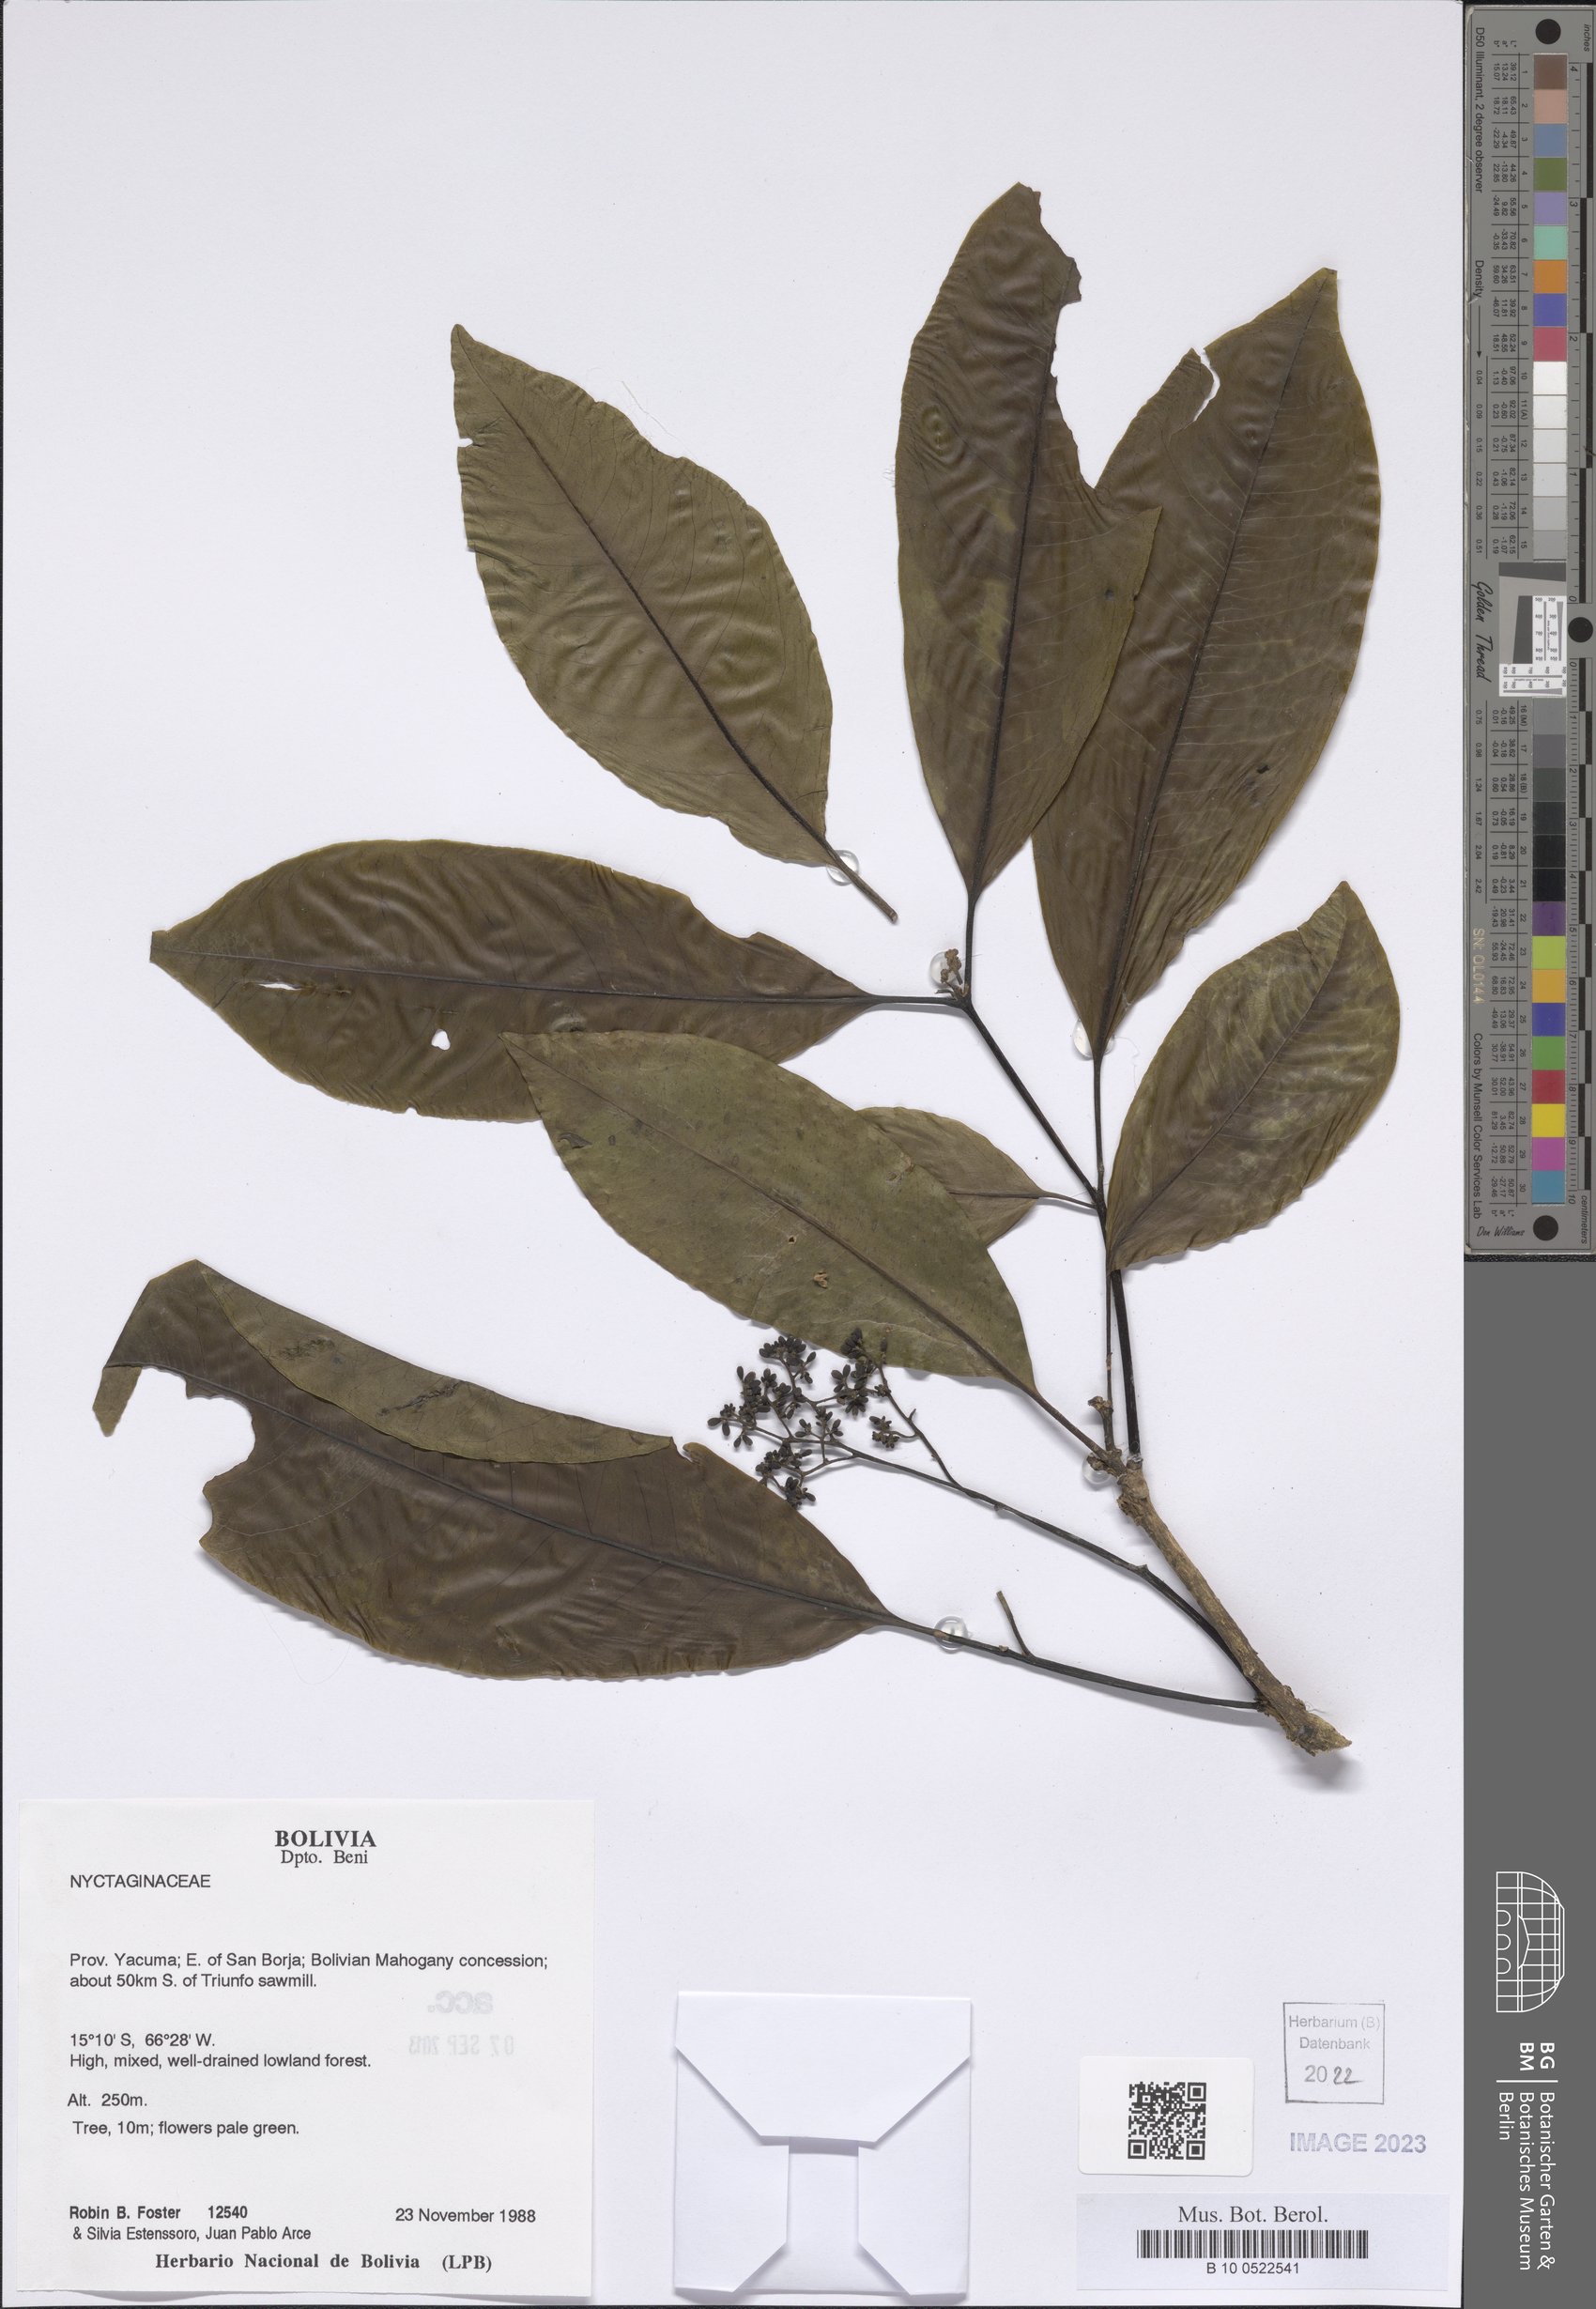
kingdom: Plantae
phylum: Tracheophyta
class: Magnoliopsida
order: Caryophyllales
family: Nyctaginaceae
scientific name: Nyctaginaceae
